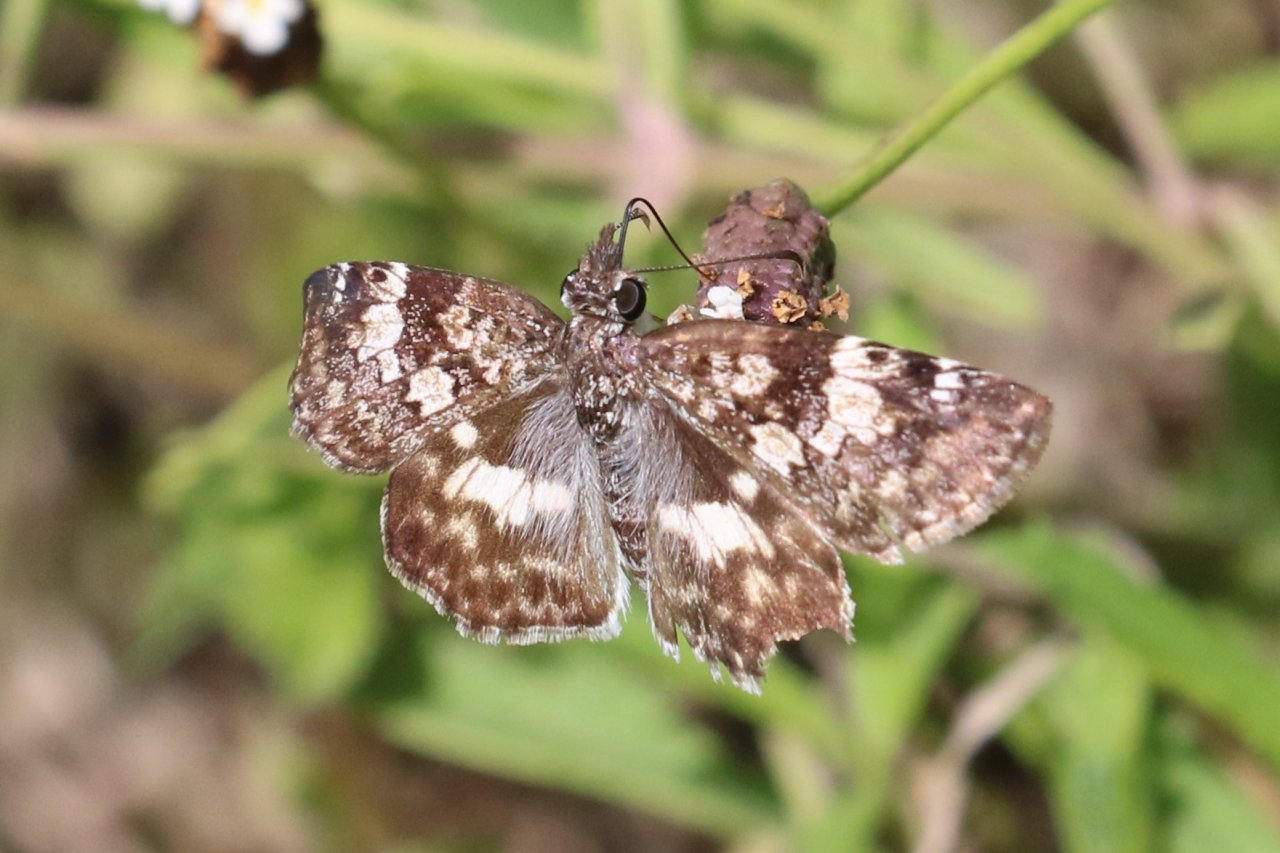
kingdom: Animalia
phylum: Arthropoda
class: Insecta
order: Lepidoptera
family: Hesperiidae
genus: Chiomara
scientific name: Chiomara asychis
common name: White-patched Skipper
